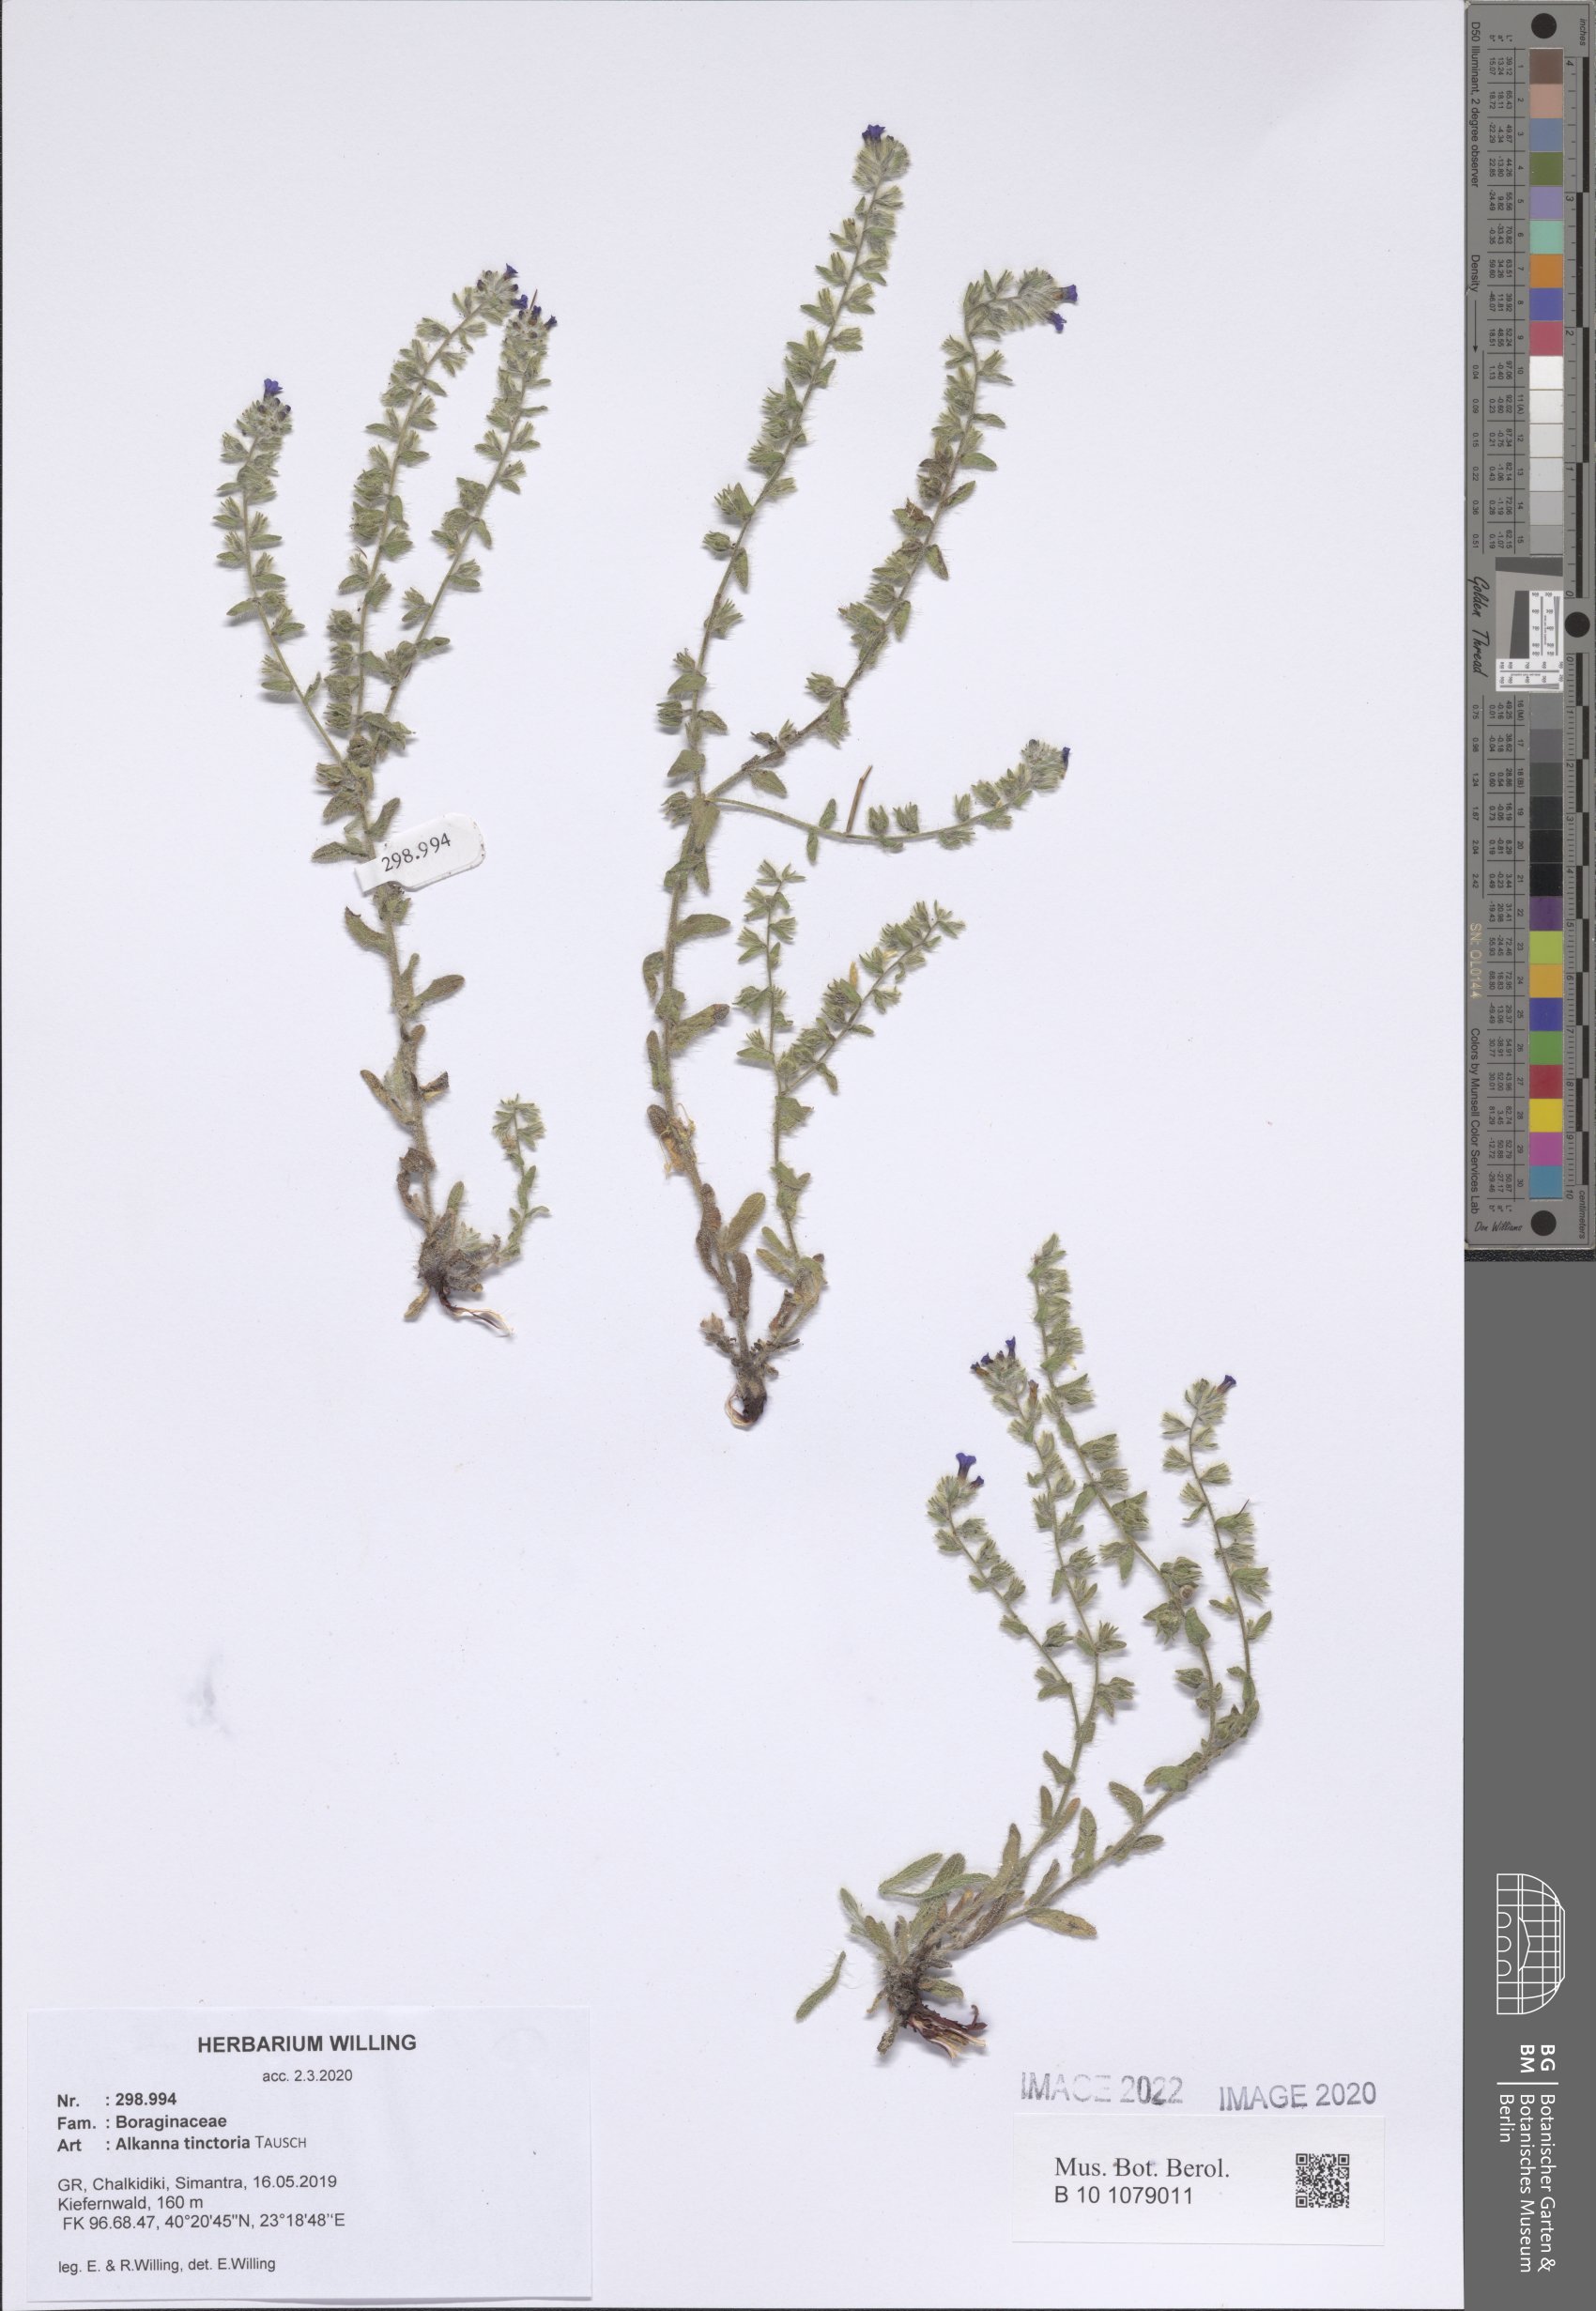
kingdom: Plantae
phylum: Tracheophyta
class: Magnoliopsida
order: Boraginales
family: Boraginaceae
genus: Alkanna
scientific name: Alkanna tinctoria
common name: Dyer's-alkanet
